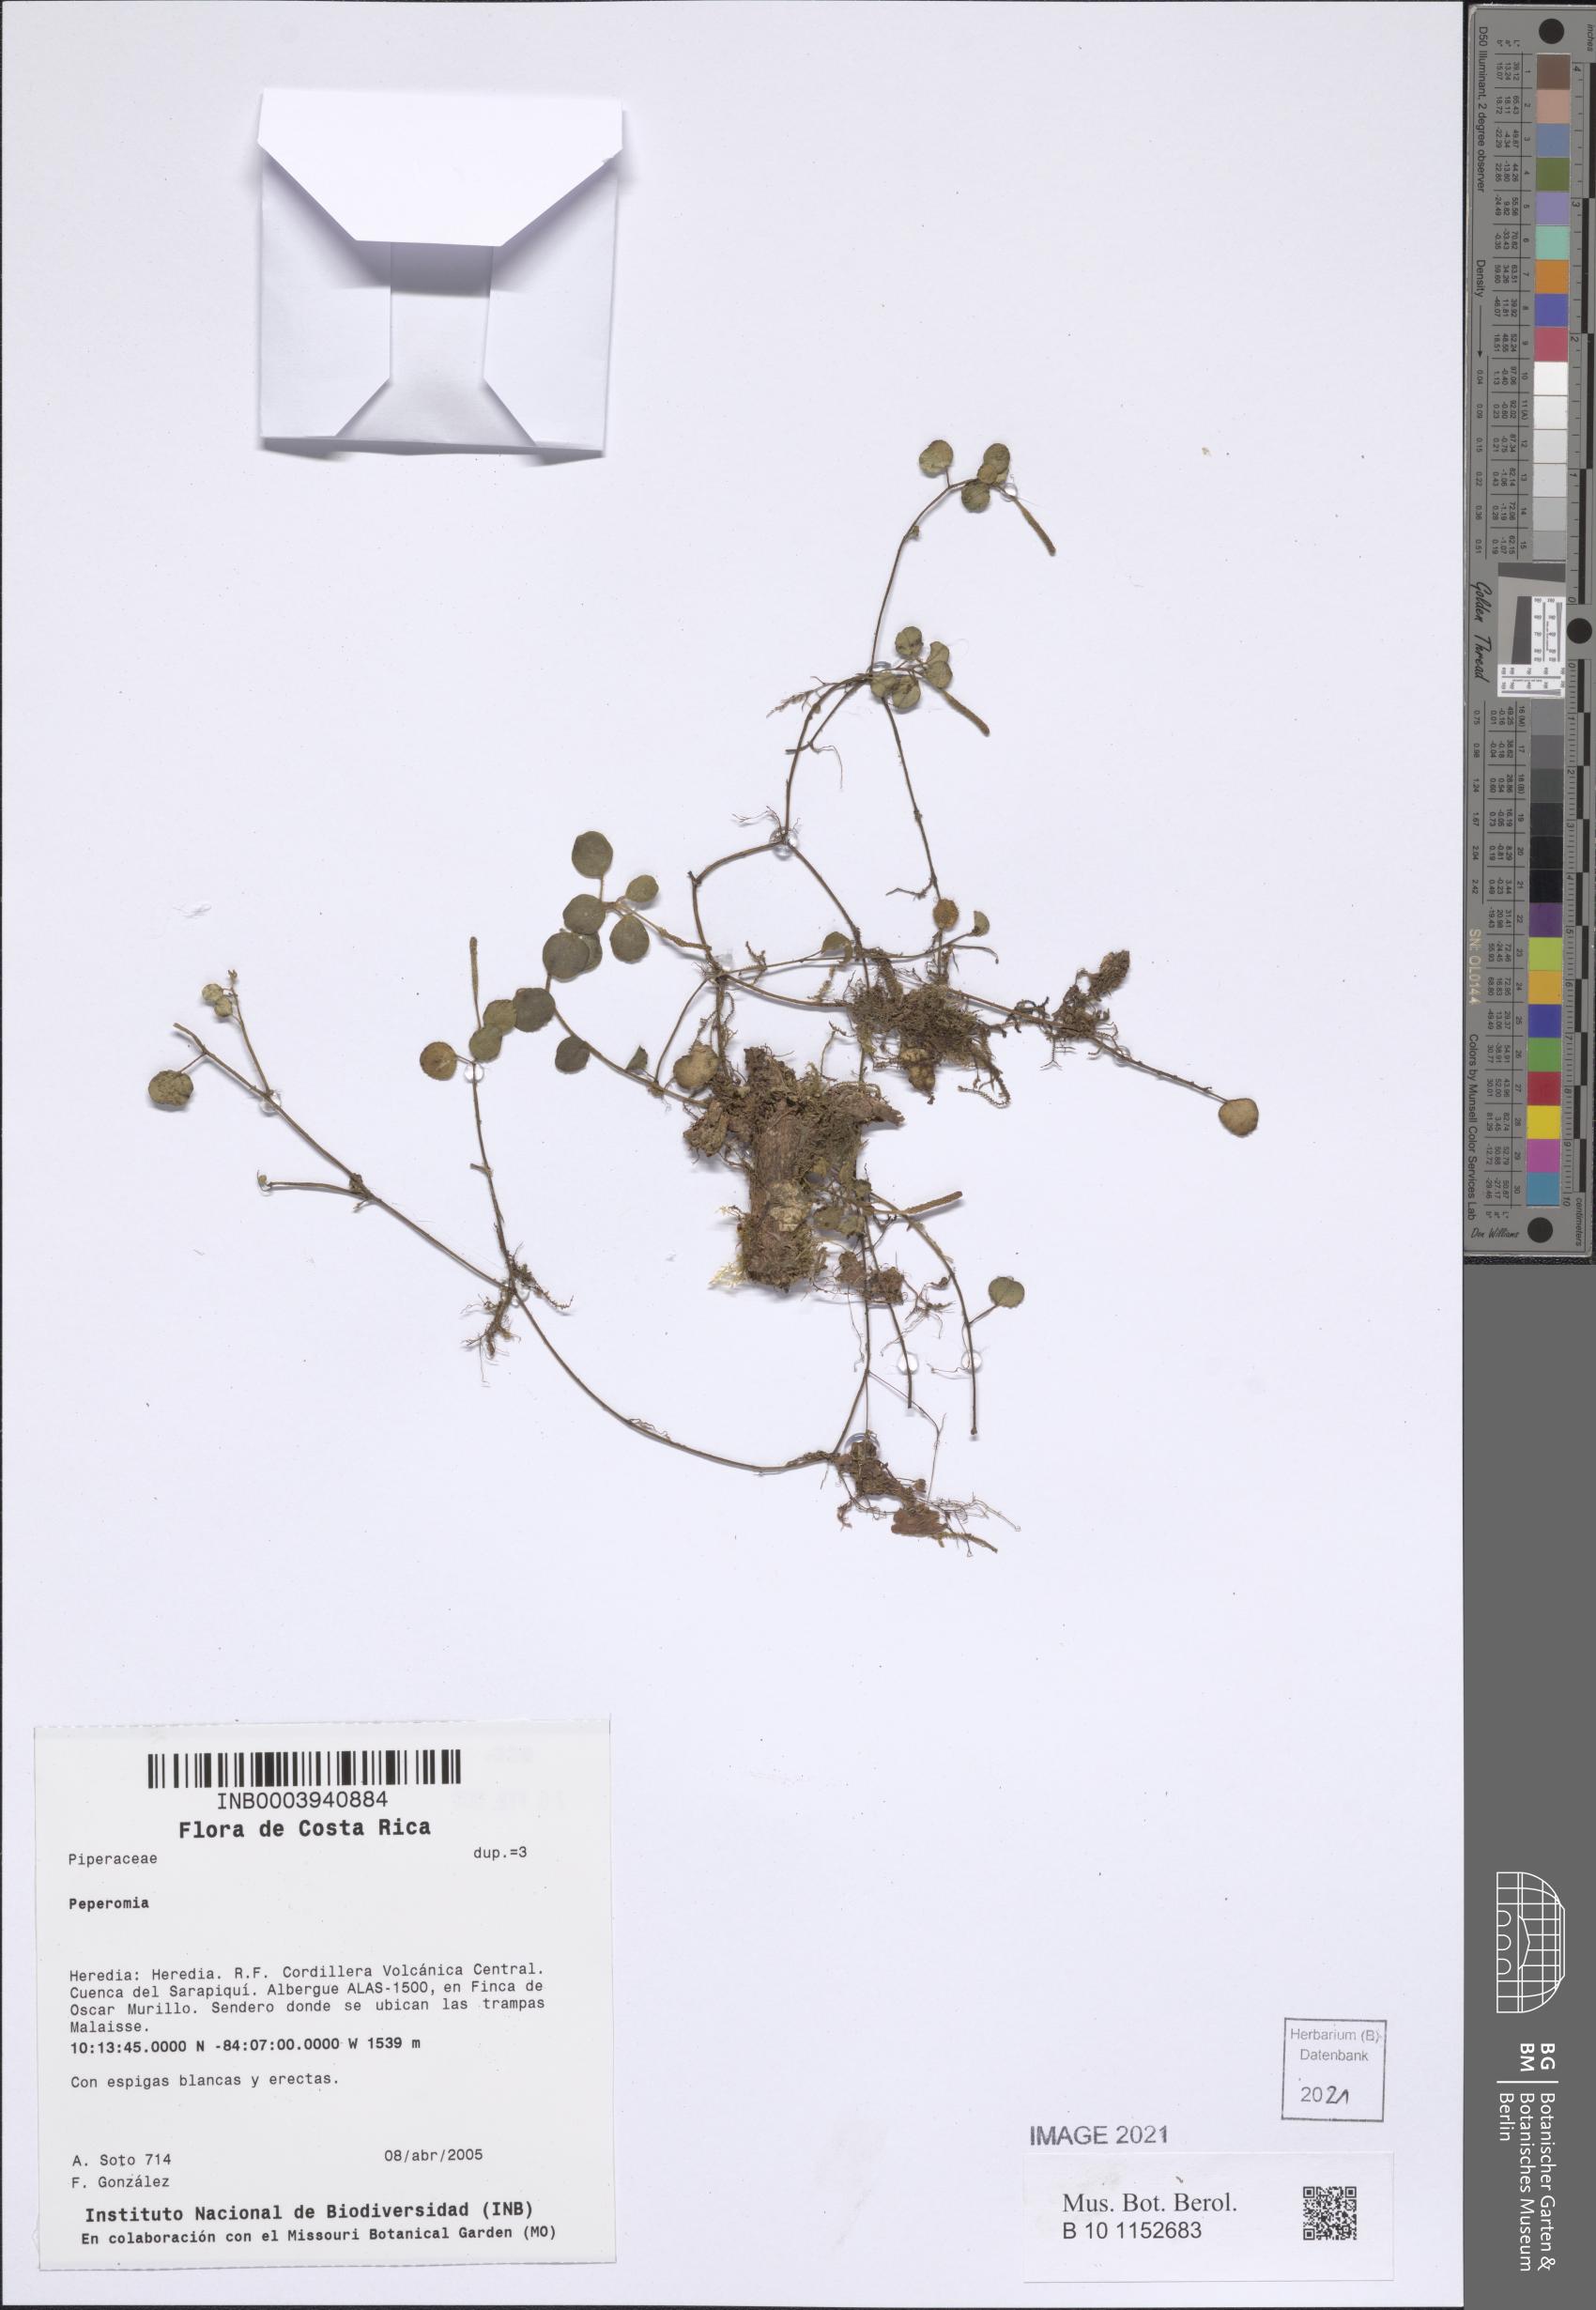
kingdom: Plantae
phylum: Tracheophyta
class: Magnoliopsida
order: Piperales
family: Piperaceae
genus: Peperomia
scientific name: Peperomia
